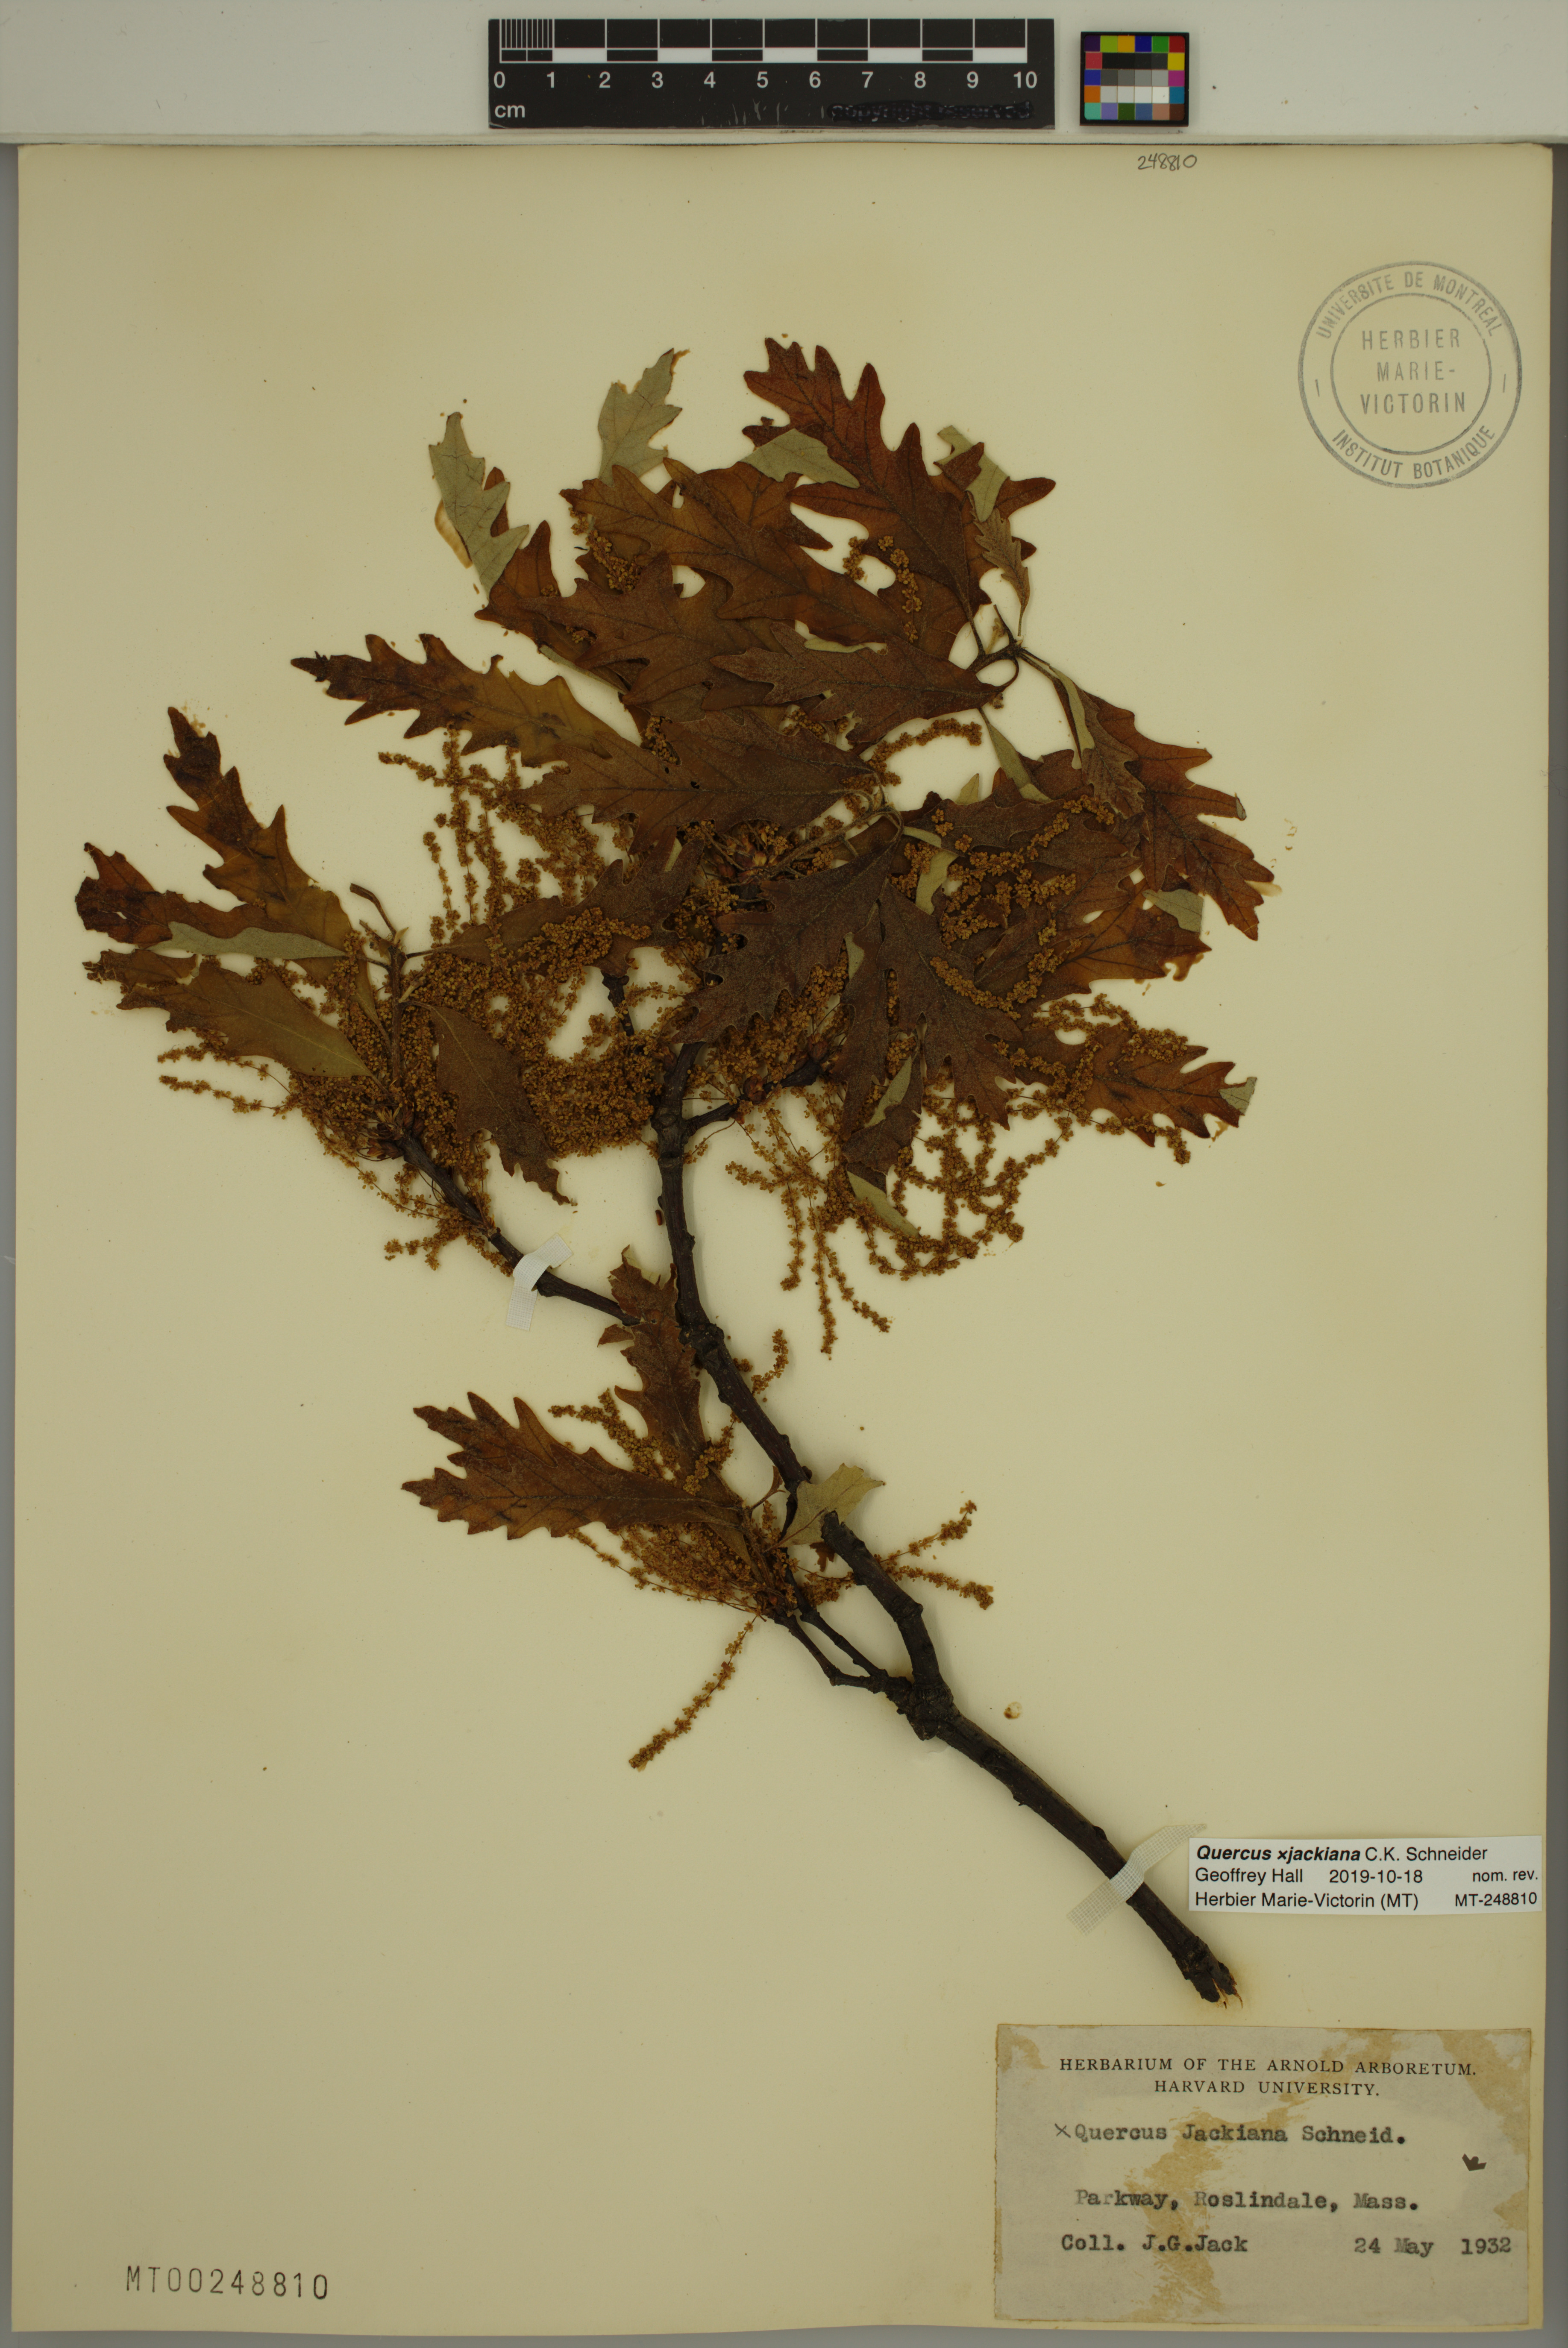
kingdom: Plantae
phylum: Tracheophyta
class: Magnoliopsida
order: Fagales
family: Fagaceae
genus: Quercus
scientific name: Quercus jackiana
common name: Jack's oak
